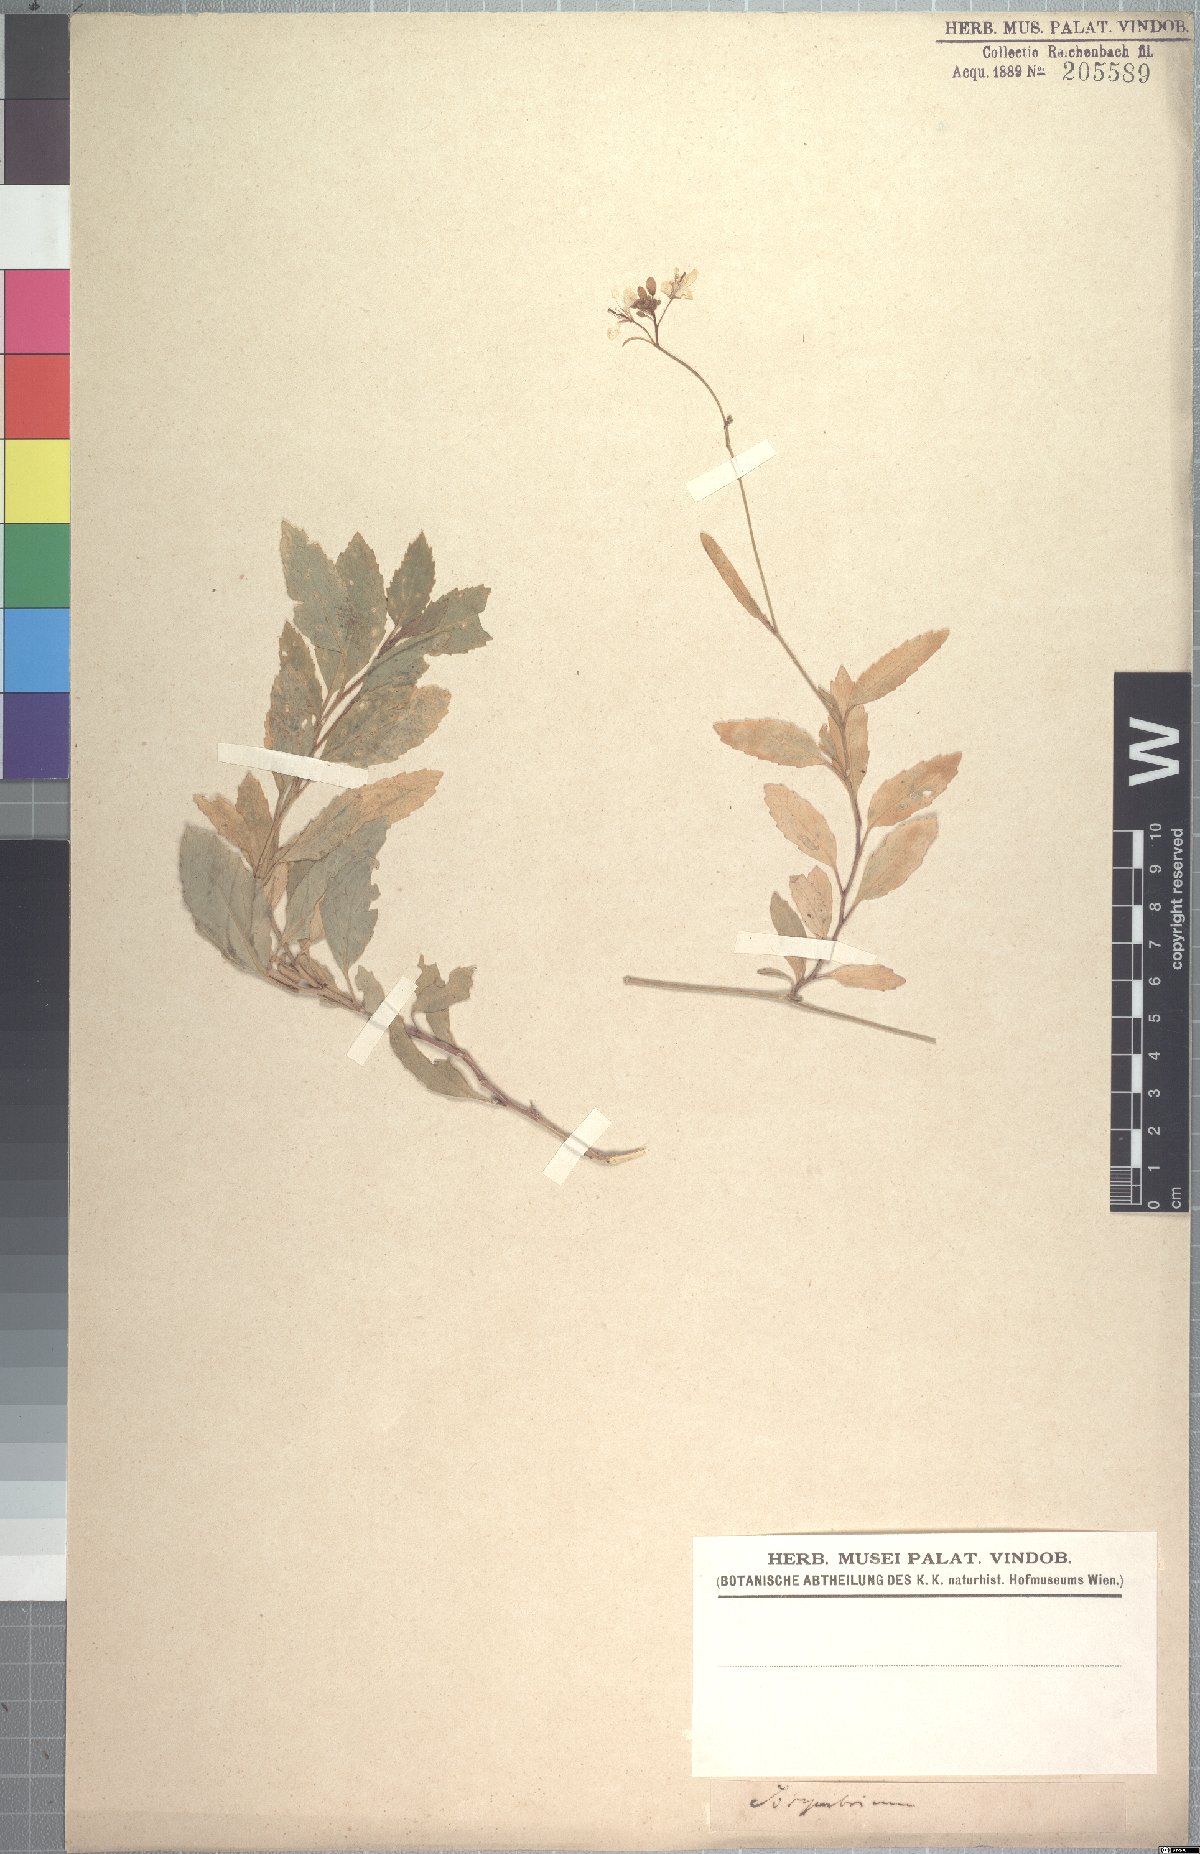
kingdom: Plantae
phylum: Tracheophyta
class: Magnoliopsida
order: Brassicales
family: Brassicaceae
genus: Polypsecadium
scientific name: Polypsecadium litorale
